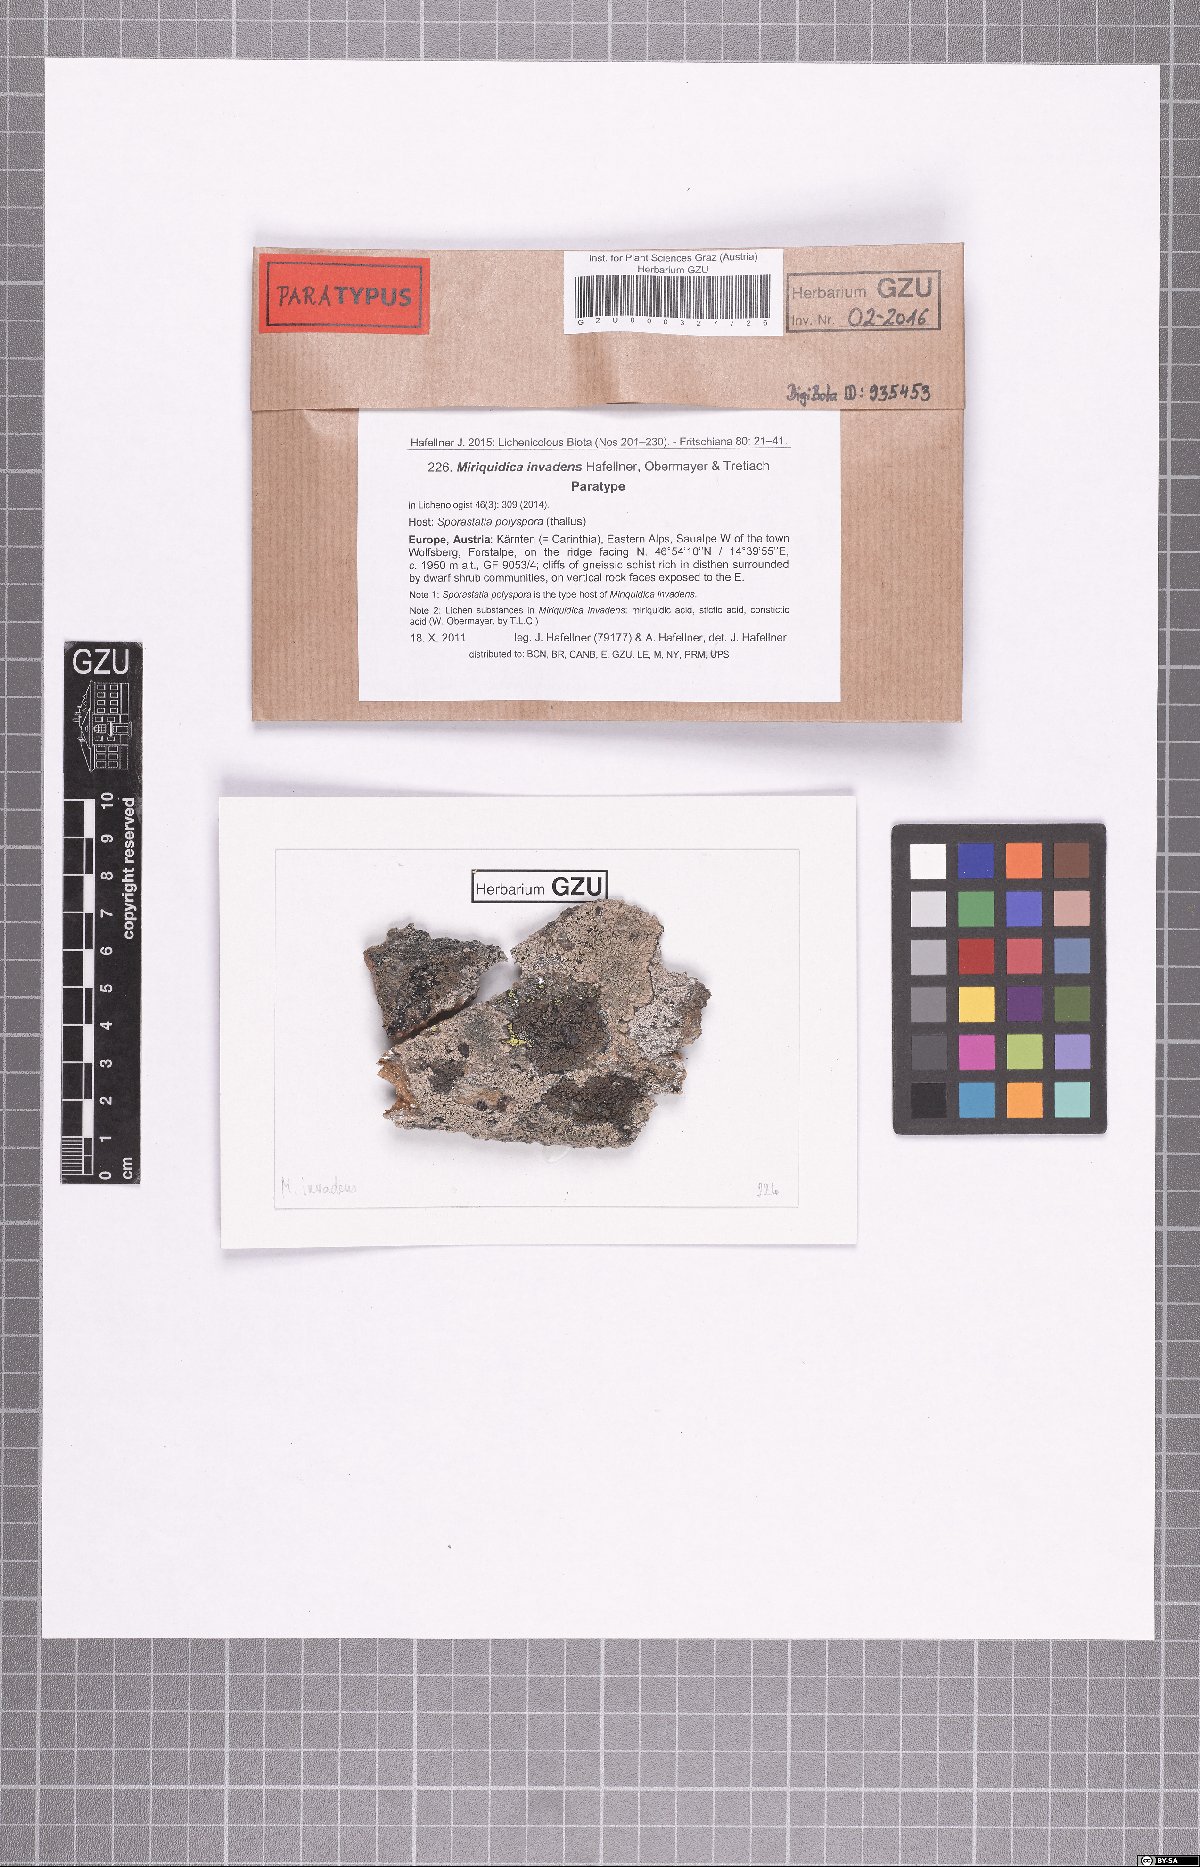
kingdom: Fungi
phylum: Ascomycota
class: Lecanoromycetes
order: Lecanorales
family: Lecanoraceae
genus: Miriquidica
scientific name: Miriquidica invadens
